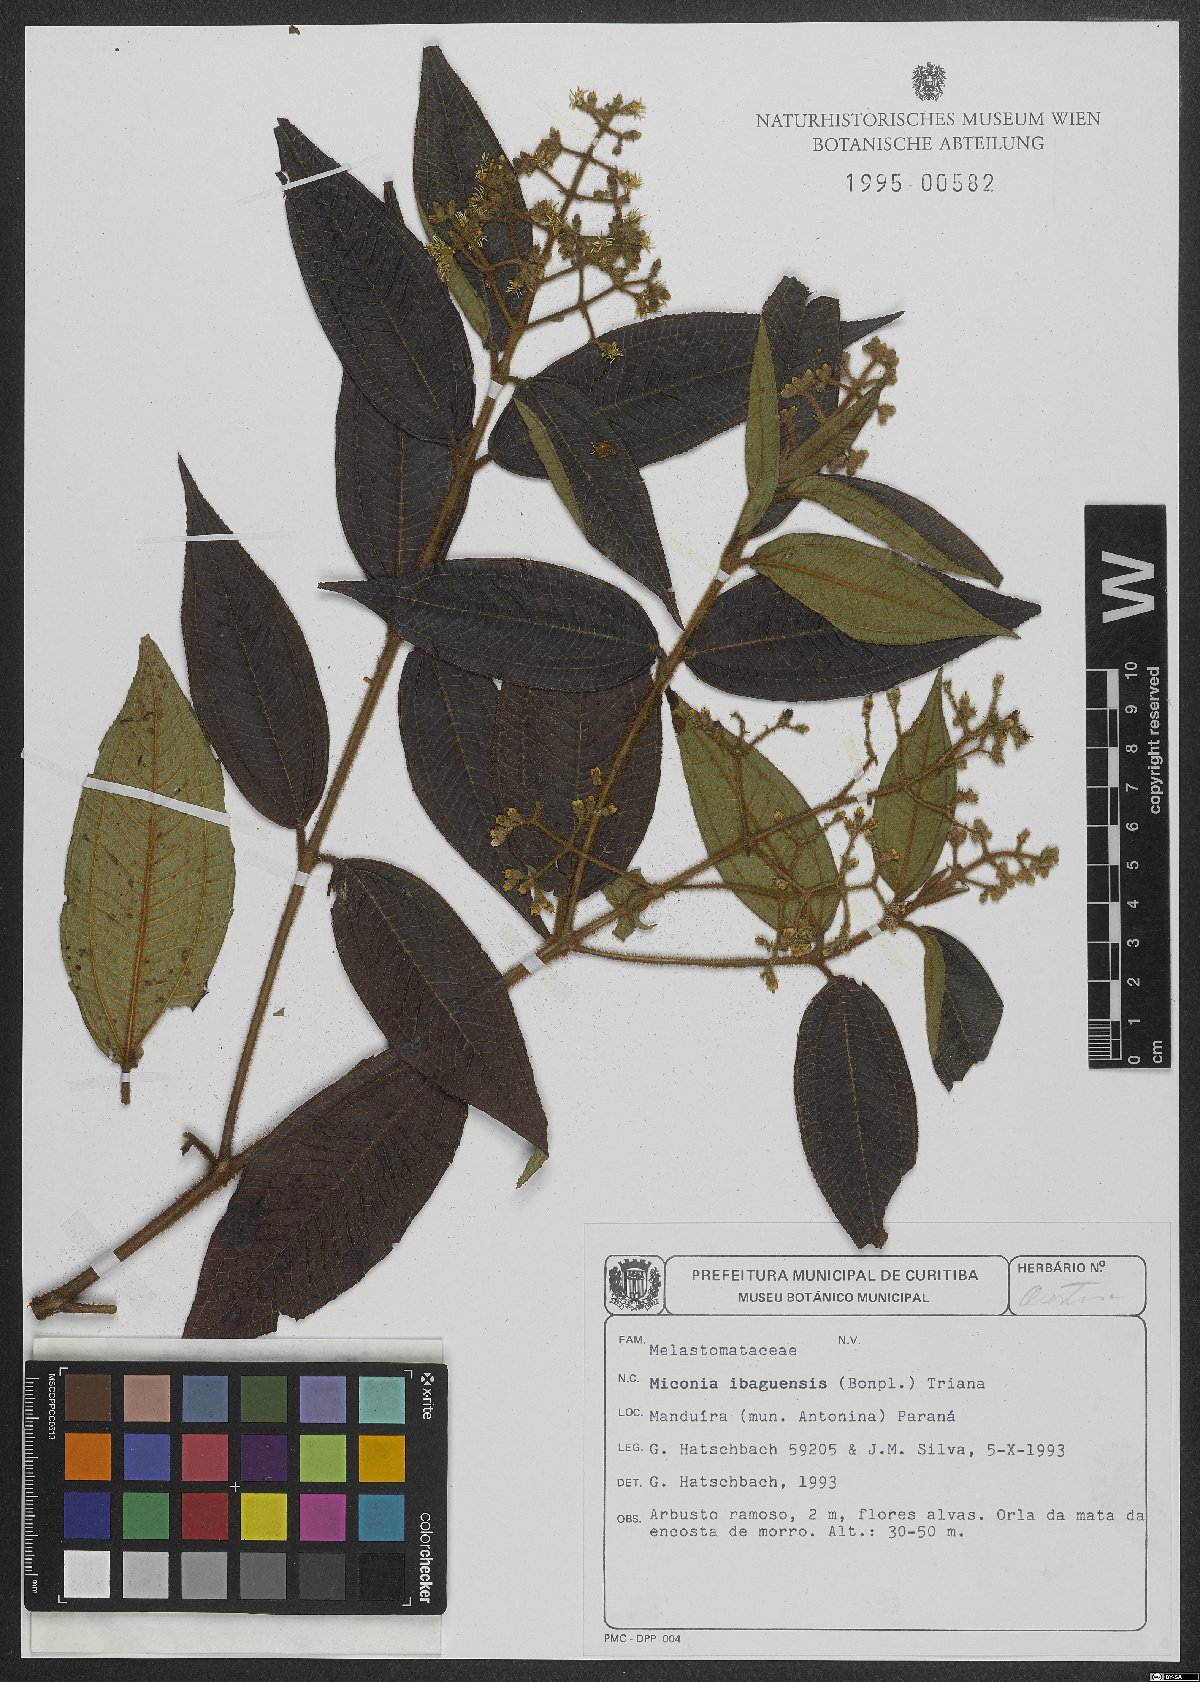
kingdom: Plantae
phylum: Tracheophyta
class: Magnoliopsida
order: Myrtales
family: Melastomataceae
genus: Miconia
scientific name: Miconia ibaguensis
